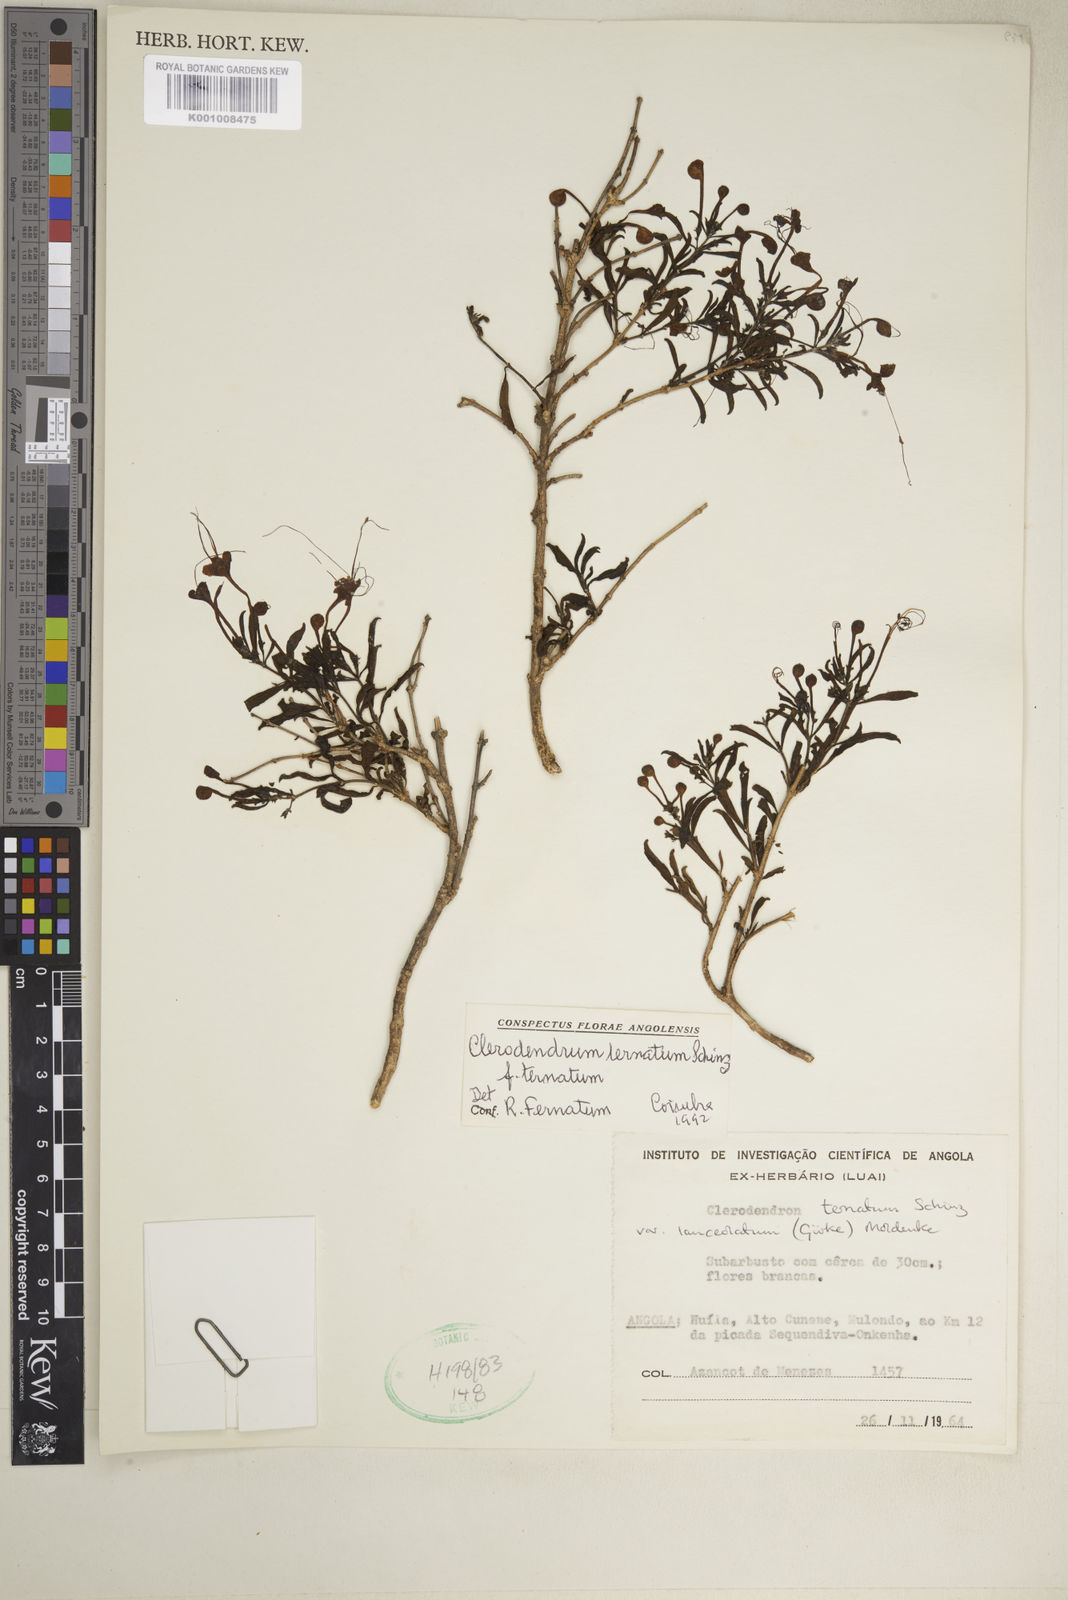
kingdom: Plantae
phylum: Tracheophyta
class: Magnoliopsida
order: Lamiales
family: Lamiaceae
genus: Clerodendrum
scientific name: Clerodendrum ternatum
